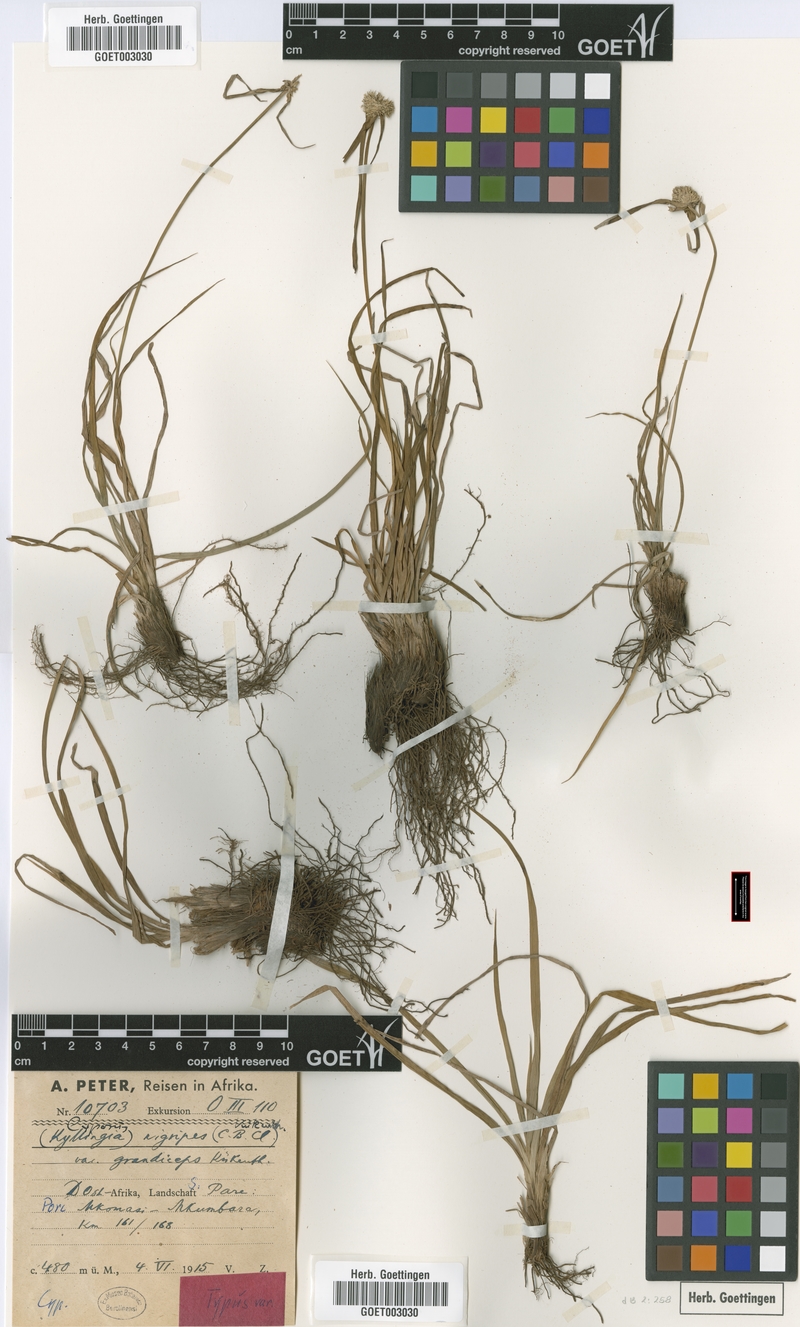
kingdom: Plantae
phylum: Tracheophyta
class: Liliopsida
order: Poales
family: Cyperaceae
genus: Cyperus
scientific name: Cyperus alatus
